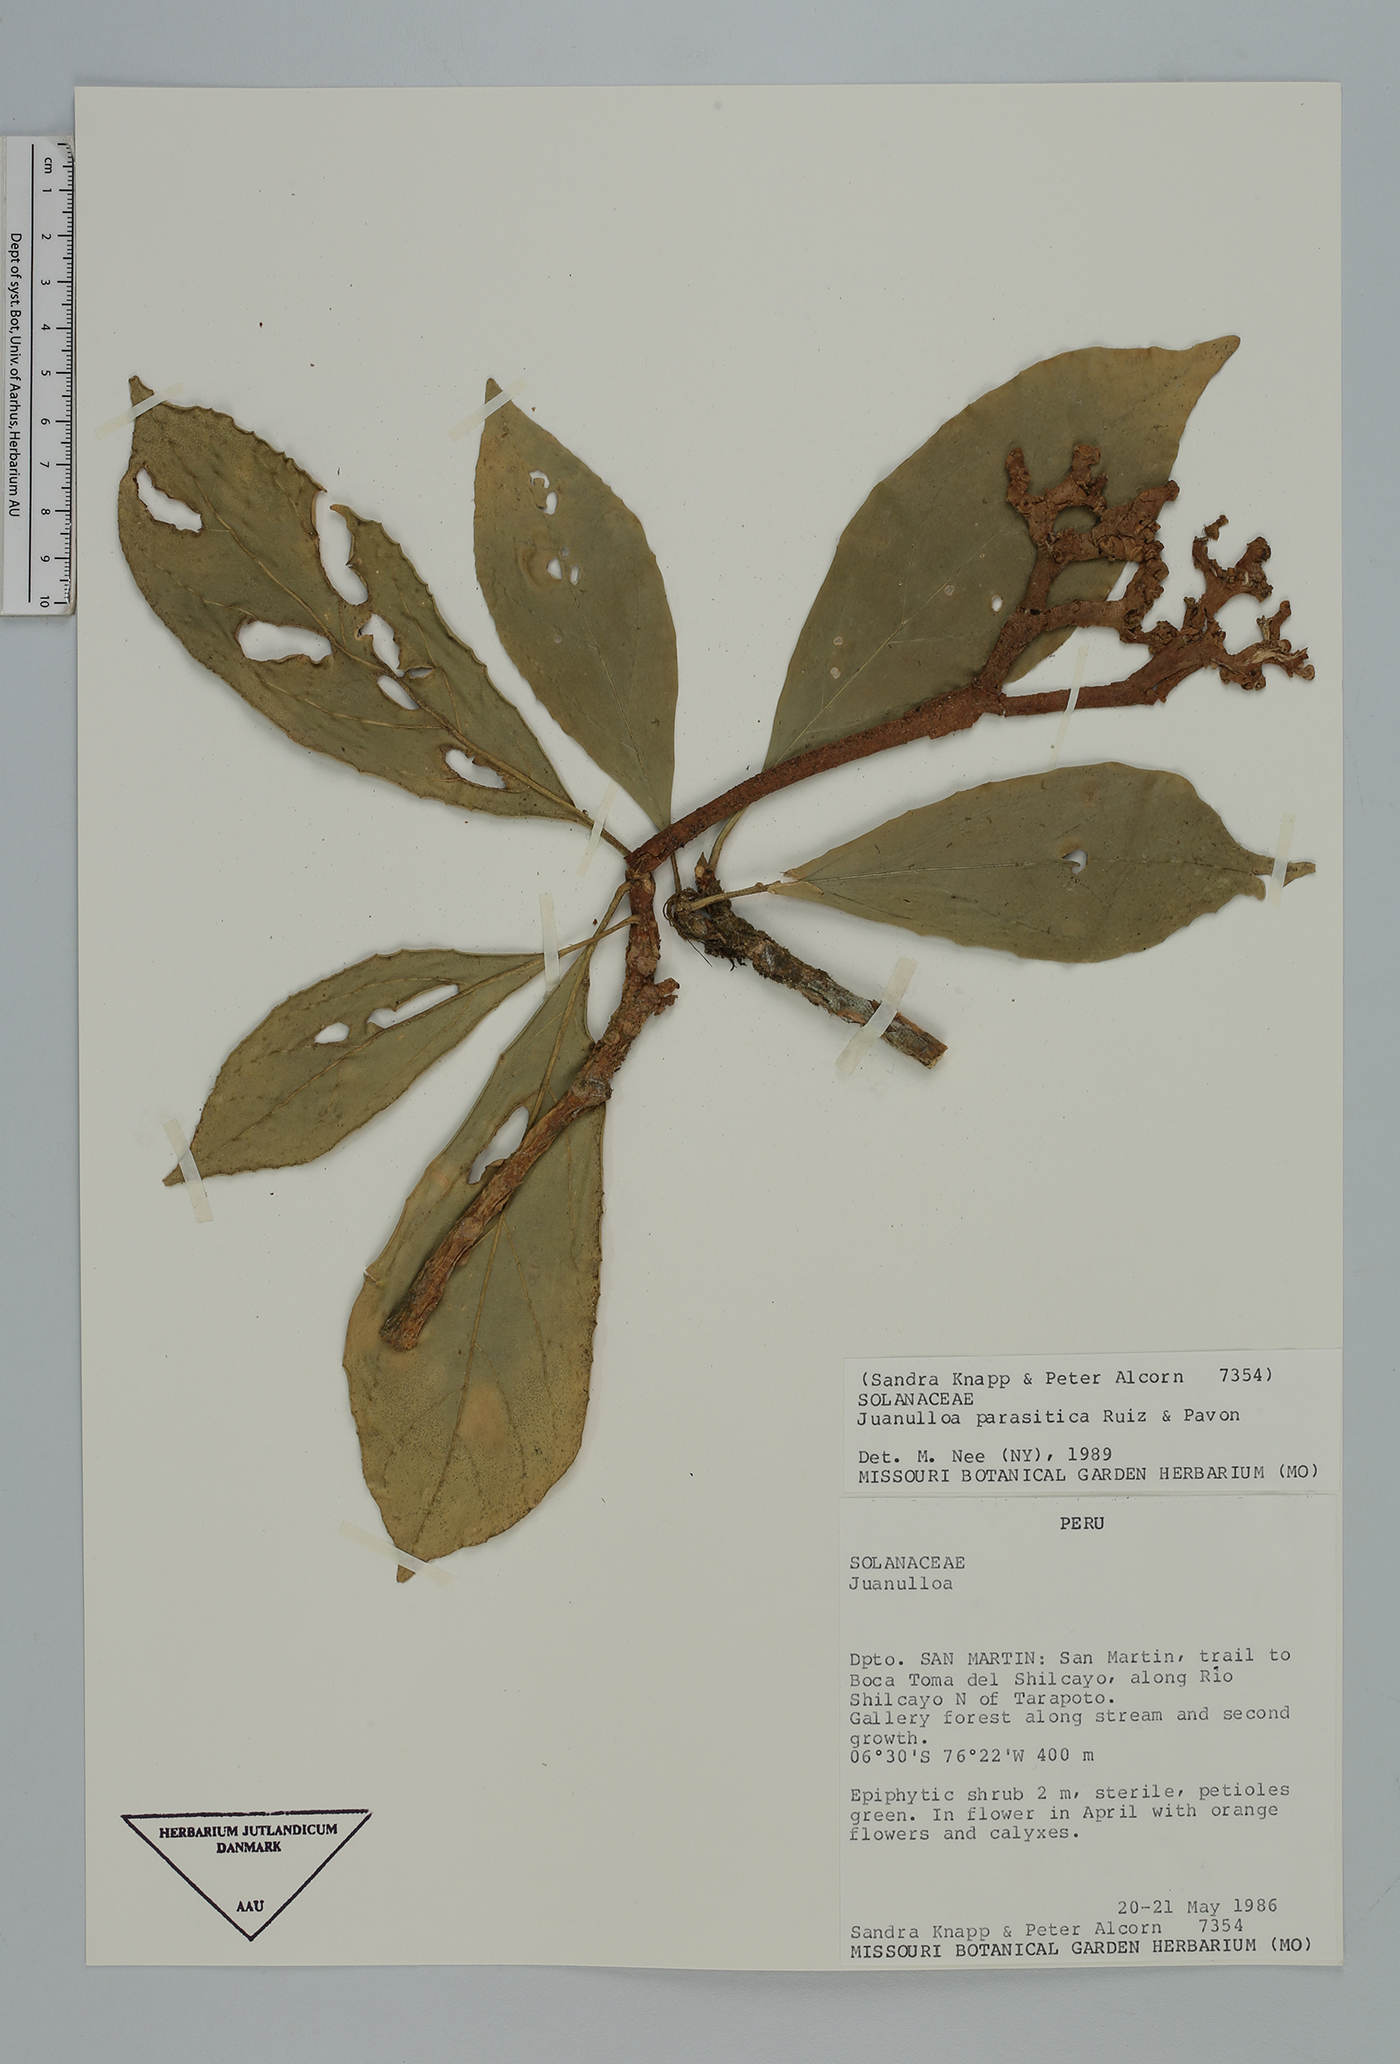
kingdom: Plantae
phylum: Tracheophyta
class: Magnoliopsida
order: Solanales
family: Solanaceae
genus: Juanulloa
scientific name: Juanulloa parasitica
